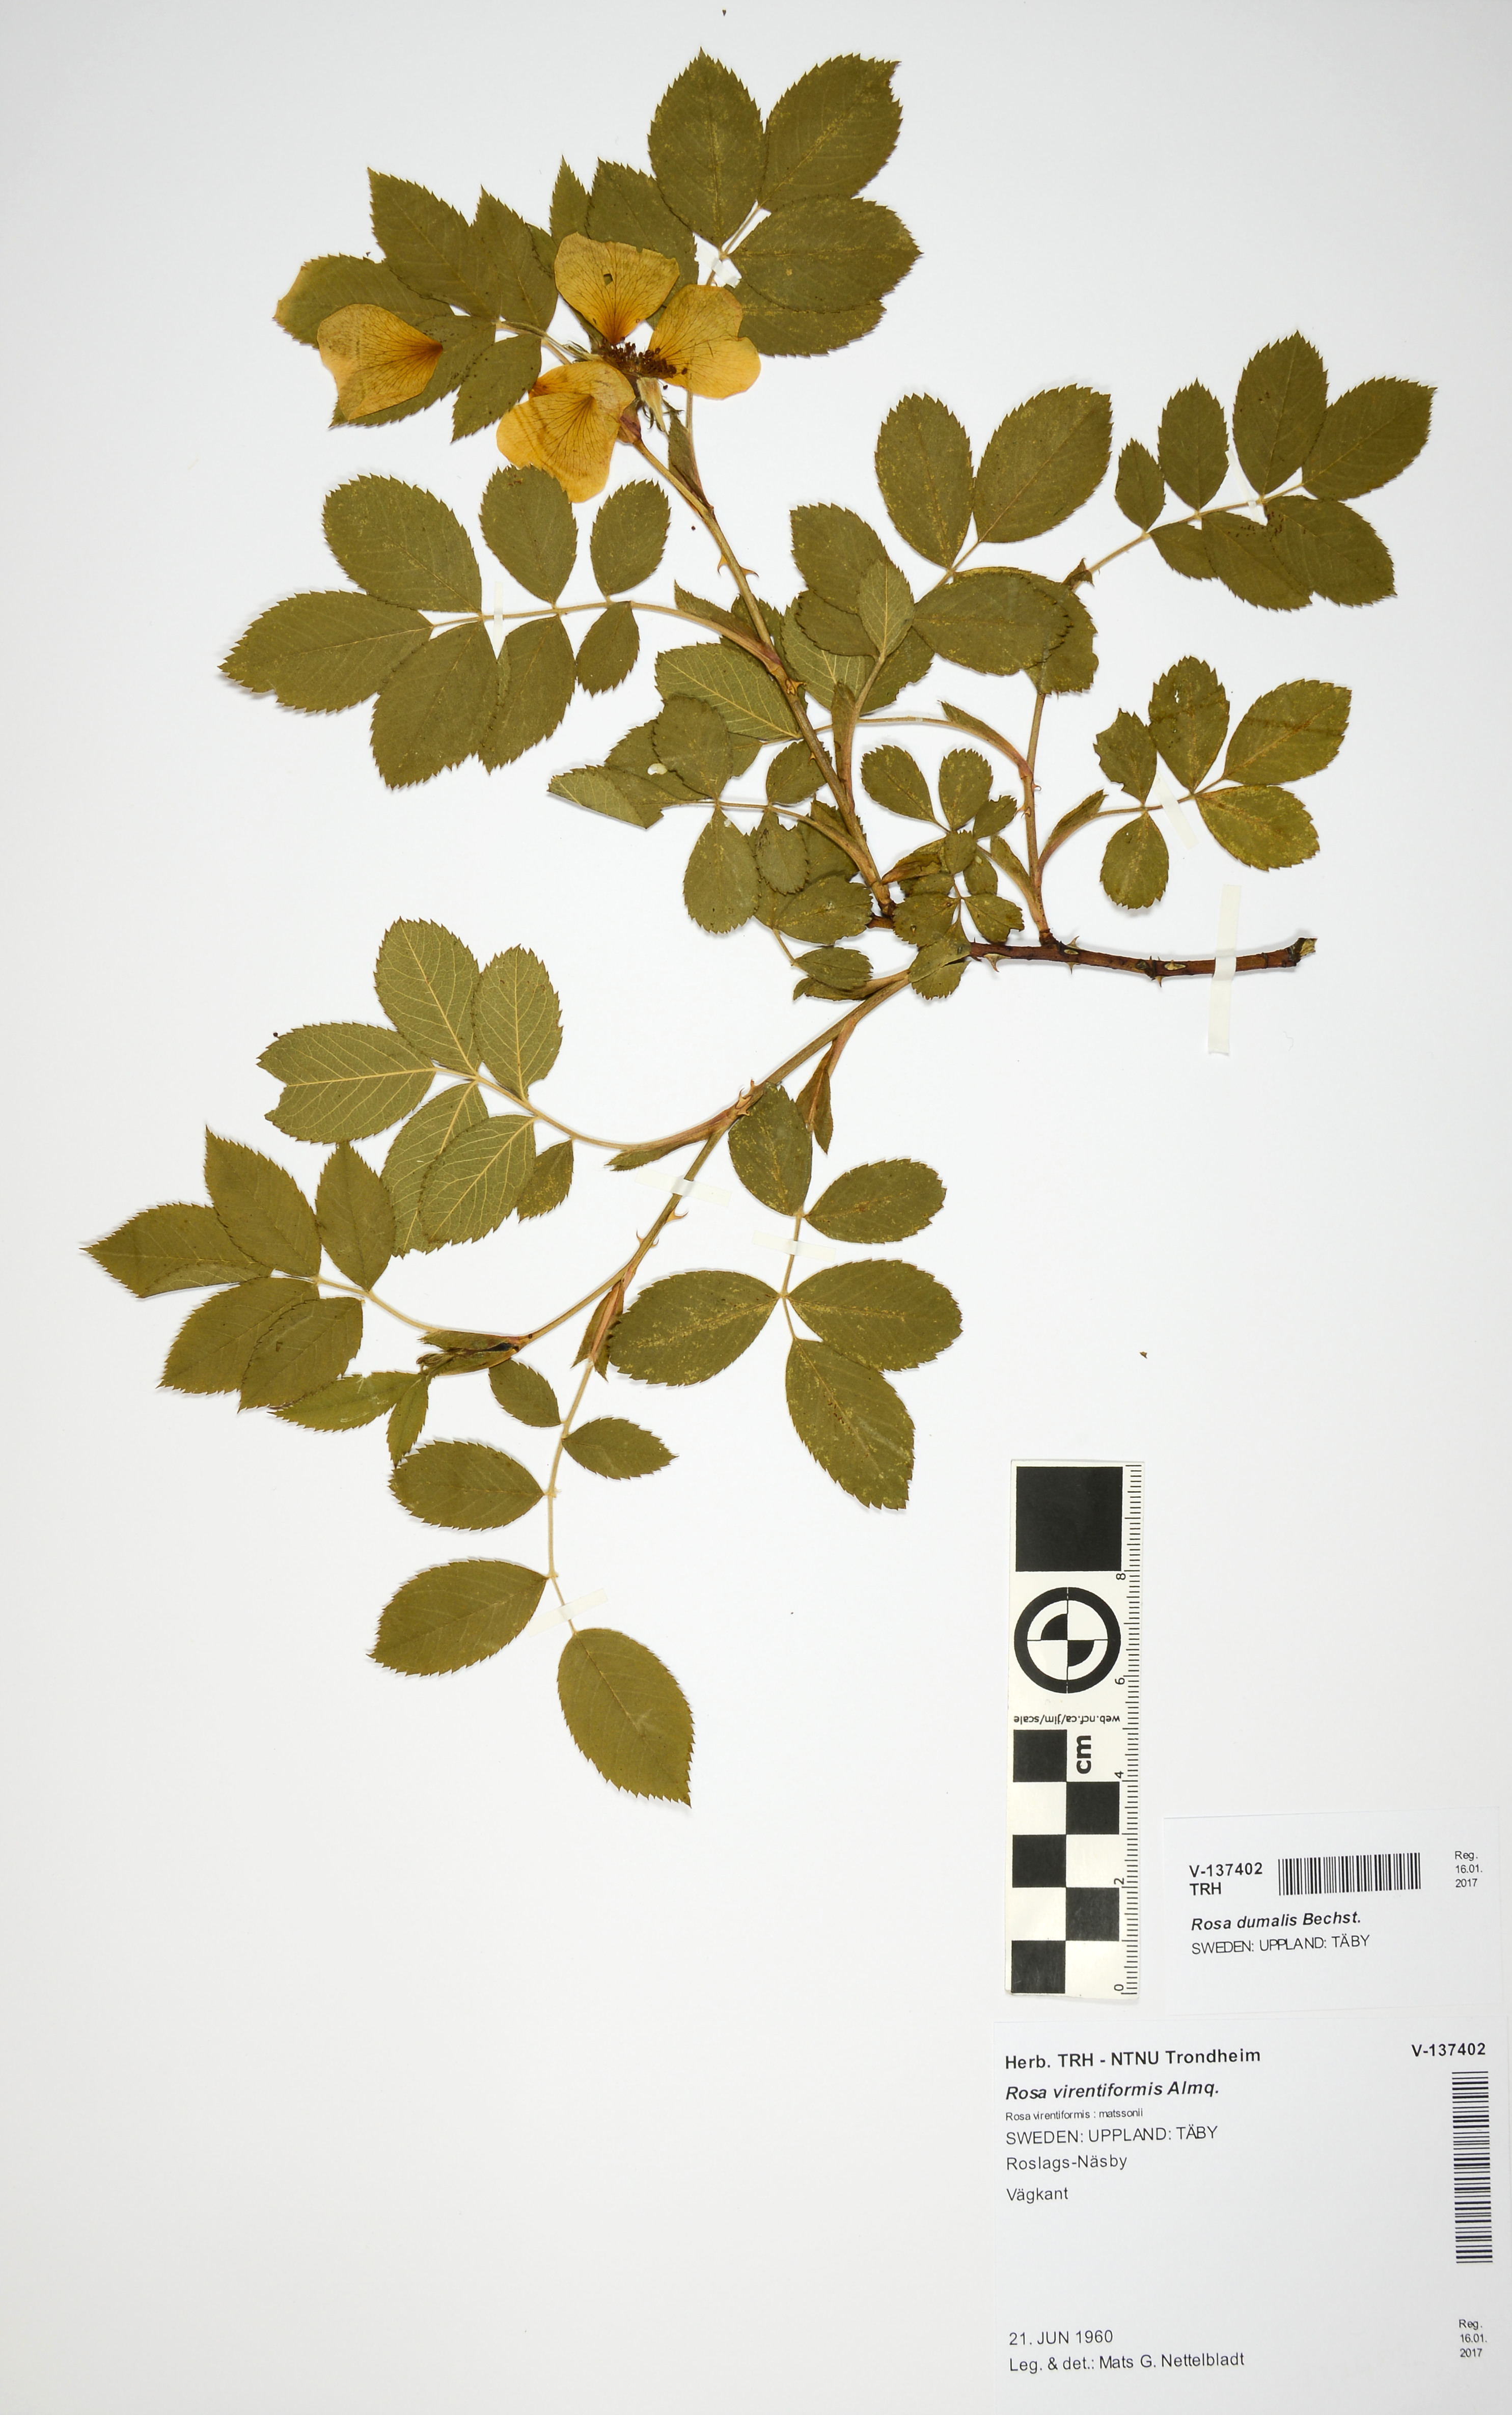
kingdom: Plantae
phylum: Tracheophyta
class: Magnoliopsida
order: Rosales
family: Rosaceae
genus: Rosa
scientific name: Rosa dumalis
